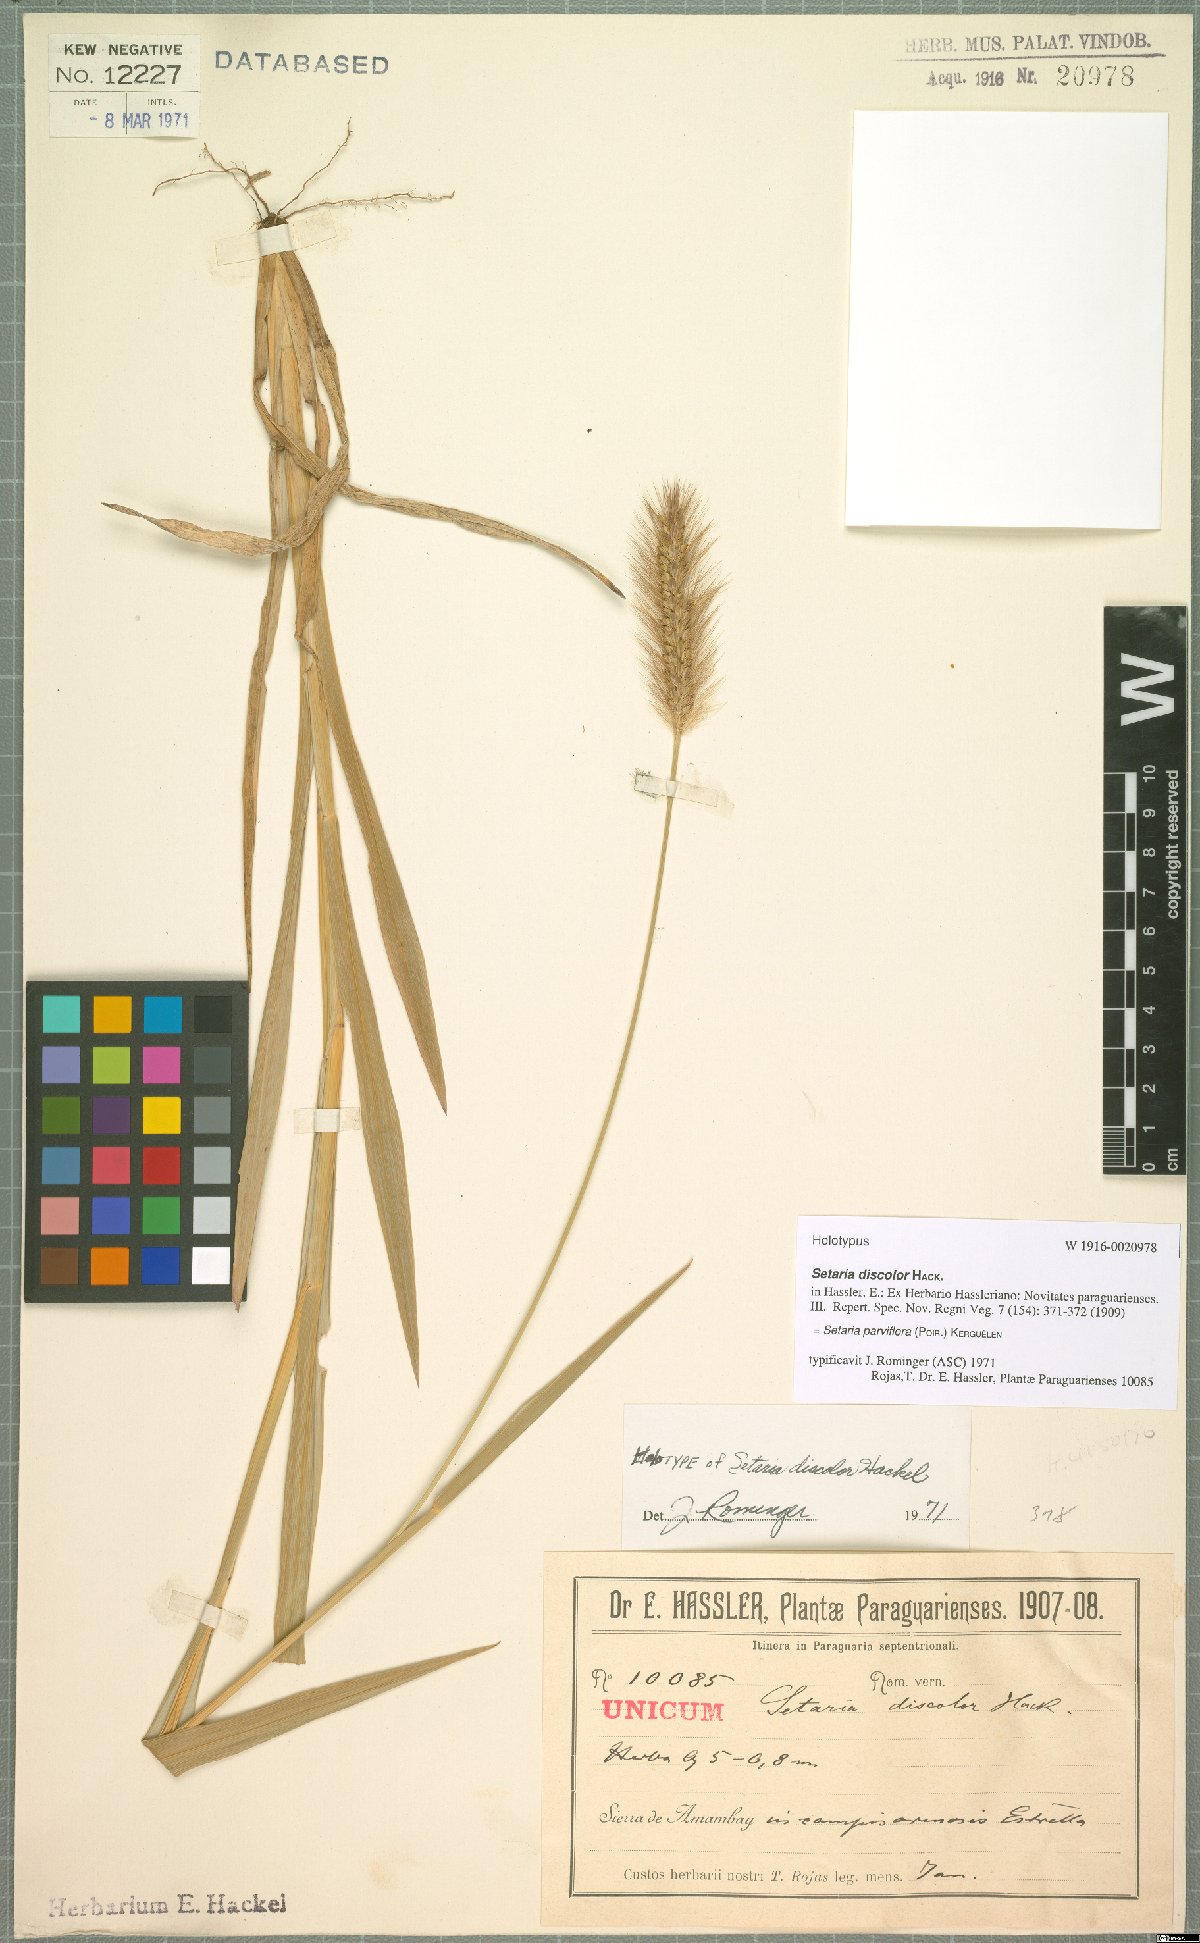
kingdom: Plantae
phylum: Tracheophyta
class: Liliopsida
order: Poales
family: Poaceae
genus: Setaria
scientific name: Setaria parviflora
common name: Knotroot bristle-grass
